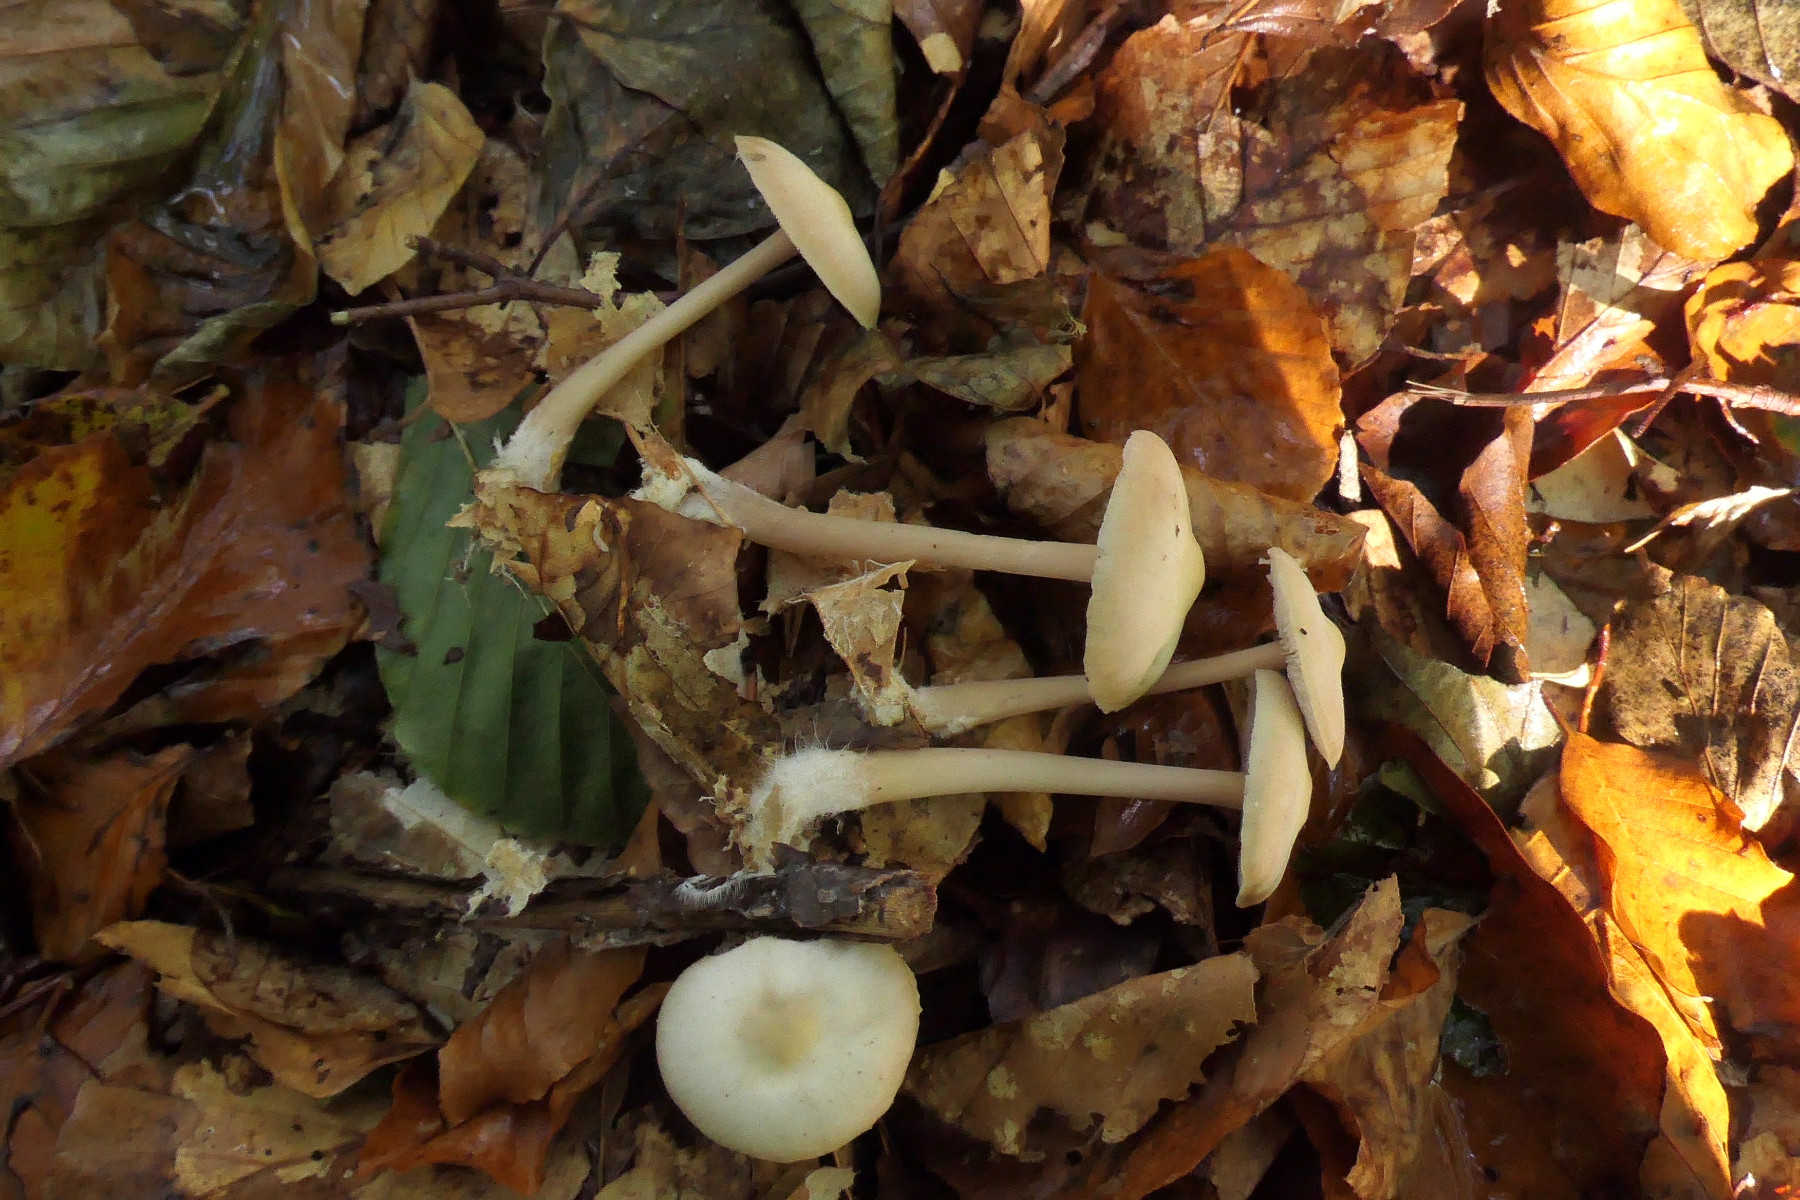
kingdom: Fungi
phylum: Basidiomycota
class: Agaricomycetes
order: Agaricales
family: Omphalotaceae
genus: Gymnopus
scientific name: Gymnopus dryophilus
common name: løv-fladhat
